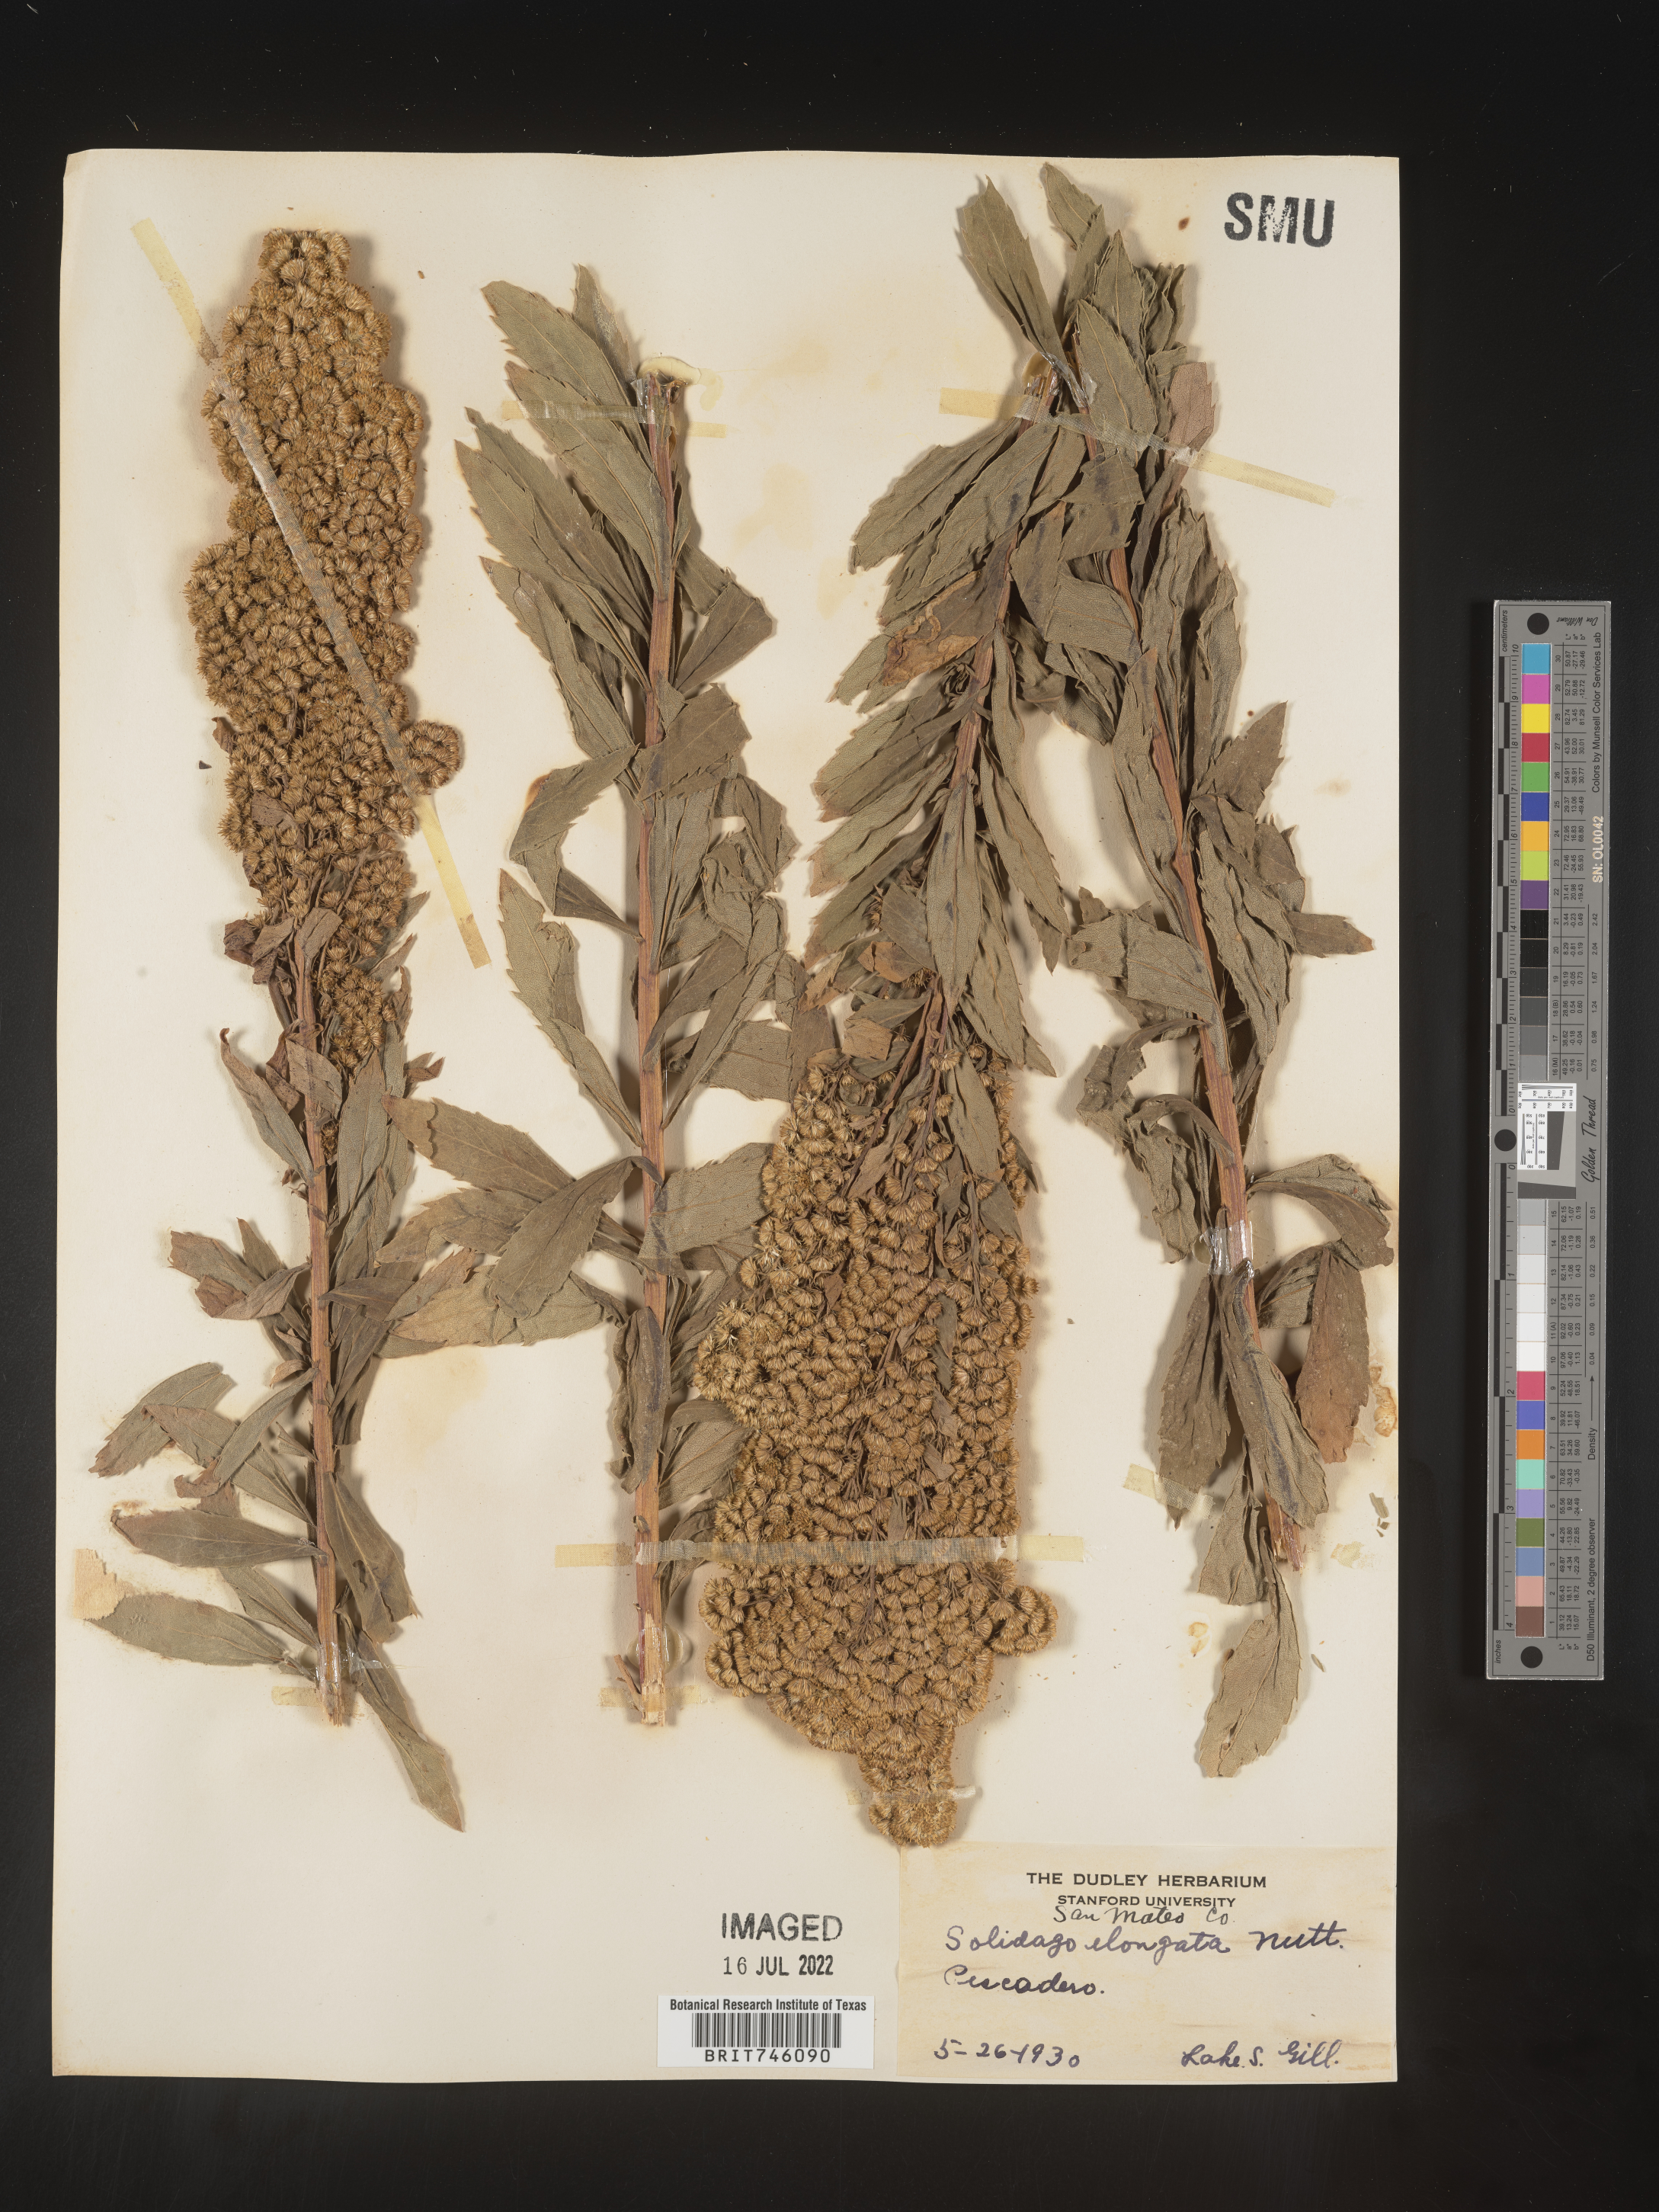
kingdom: Plantae
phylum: Tracheophyta
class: Magnoliopsida
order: Asterales
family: Asteraceae
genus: Solidago
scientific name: Solidago elongata
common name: Cascade canada goldenrod
